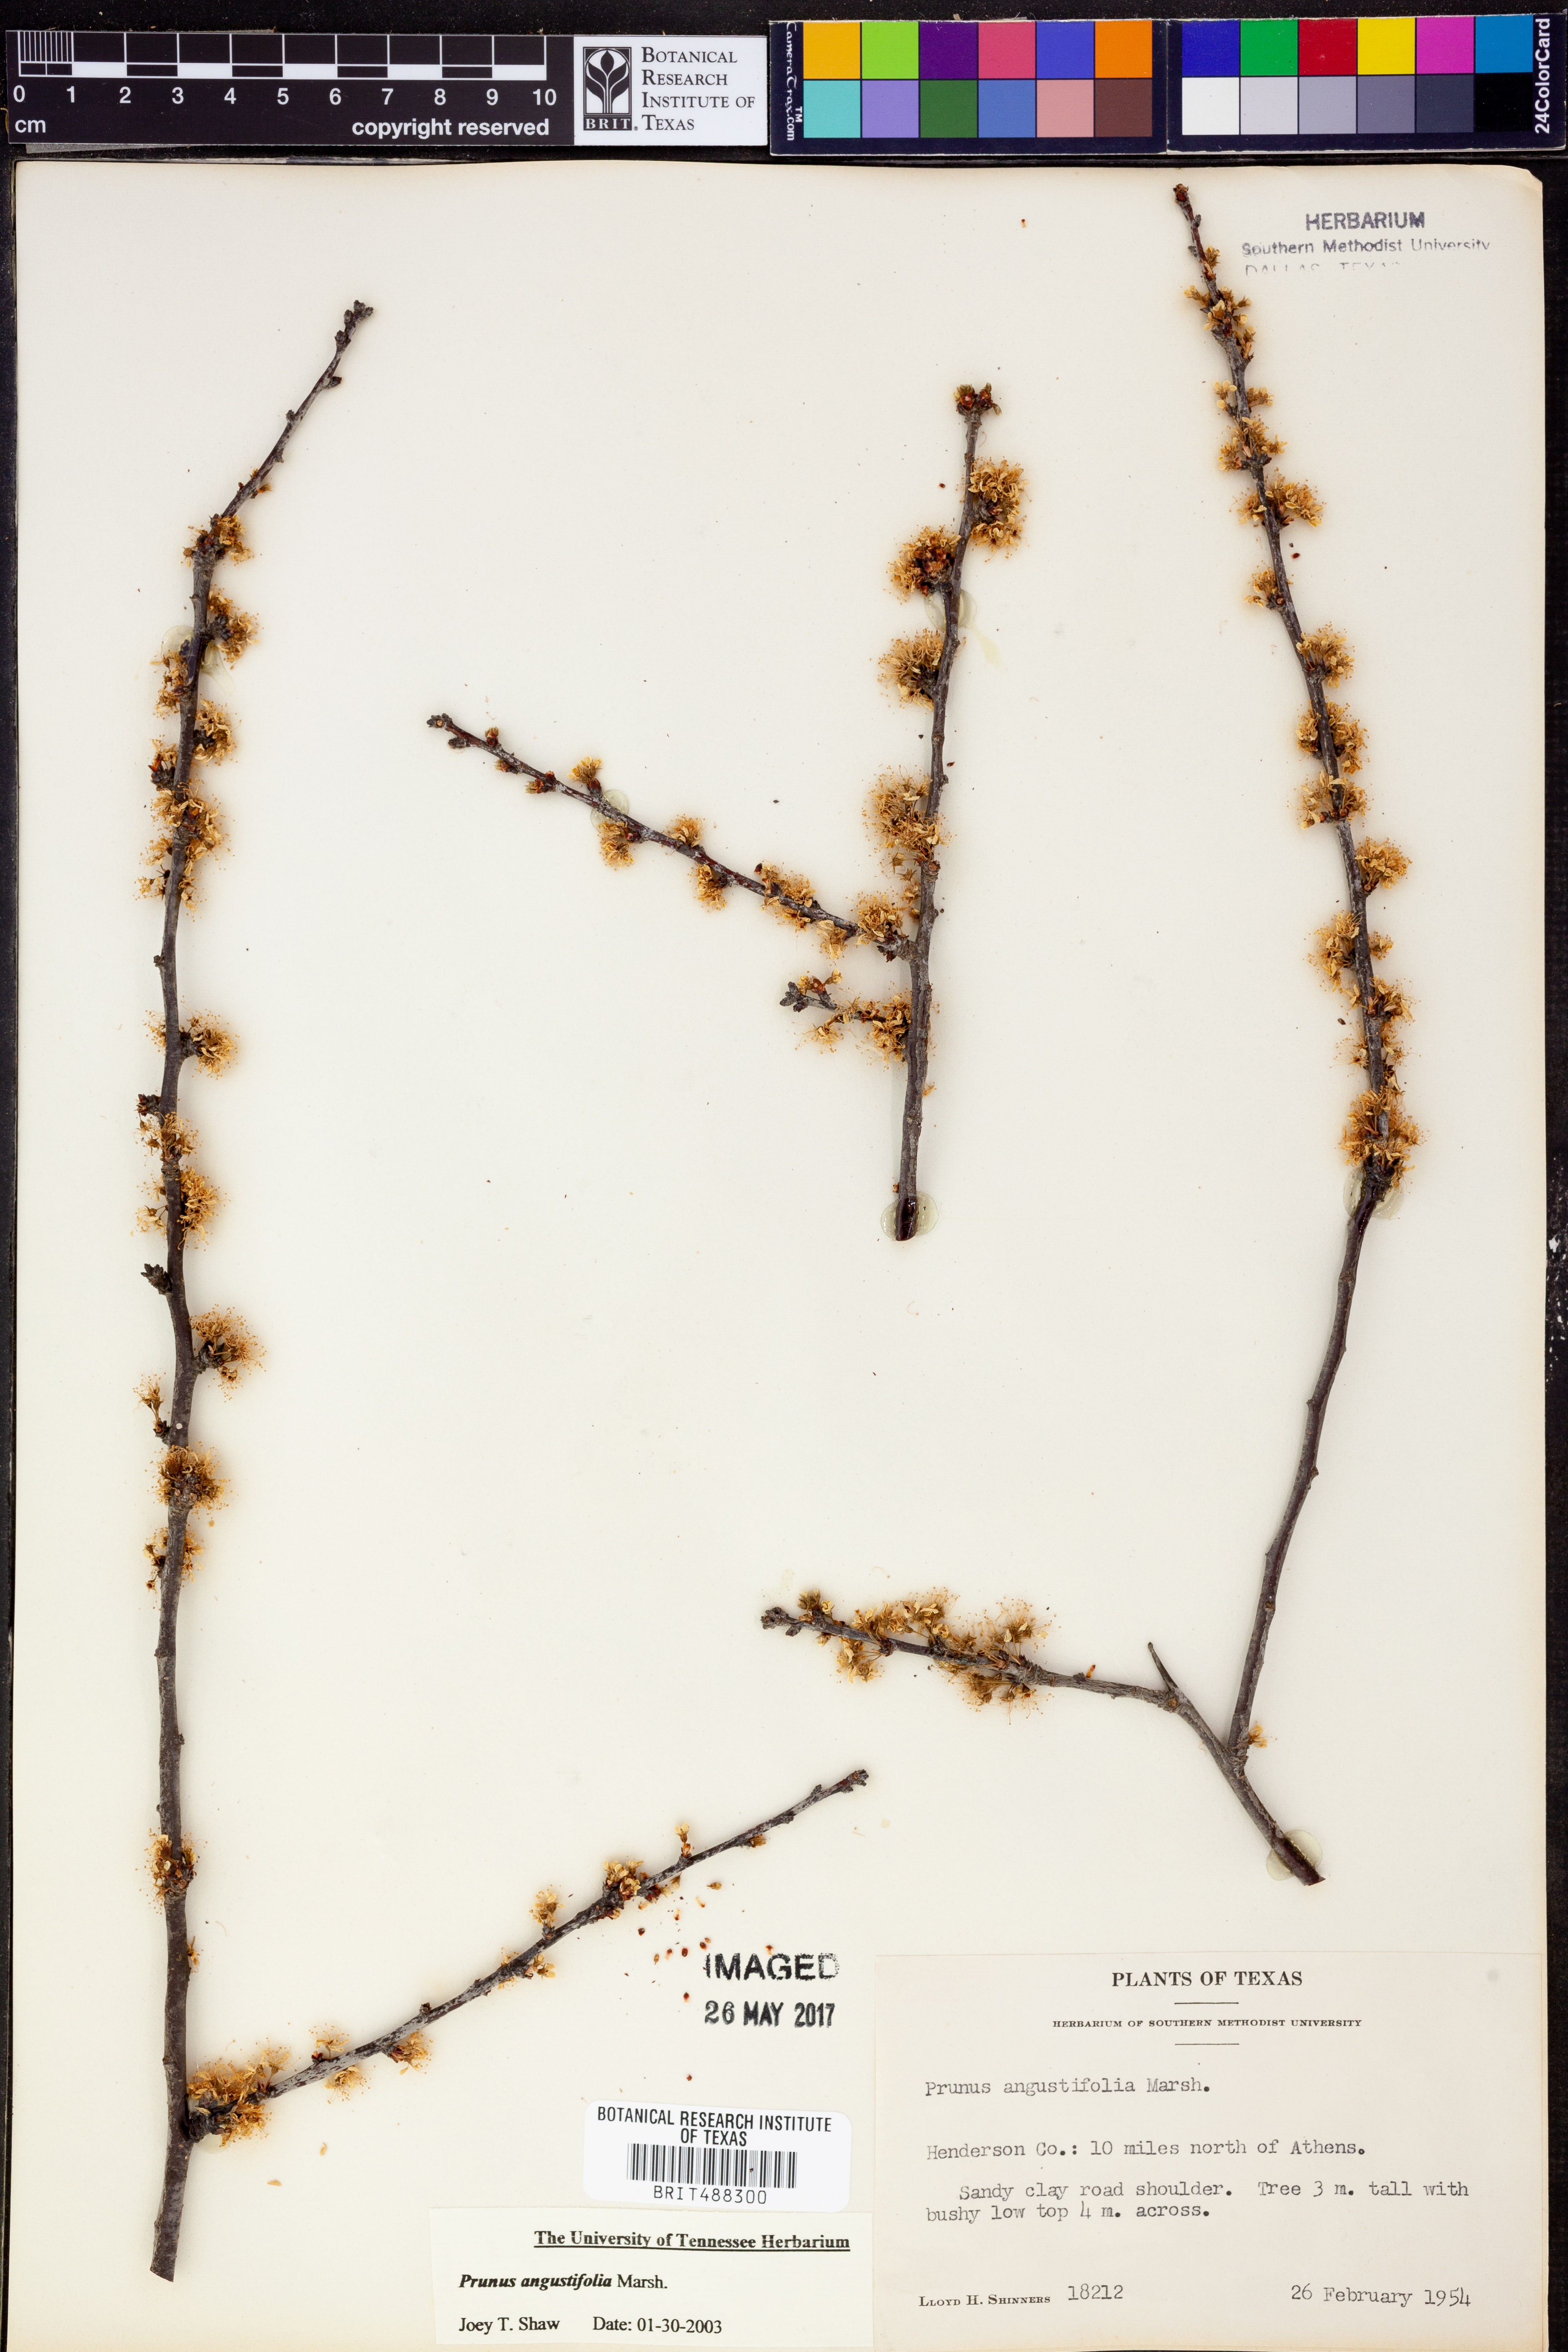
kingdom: Plantae
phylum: Tracheophyta
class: Magnoliopsida
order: Rosales
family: Rosaceae
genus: Prunus
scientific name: Prunus angustifolia
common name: Cherokee plum
